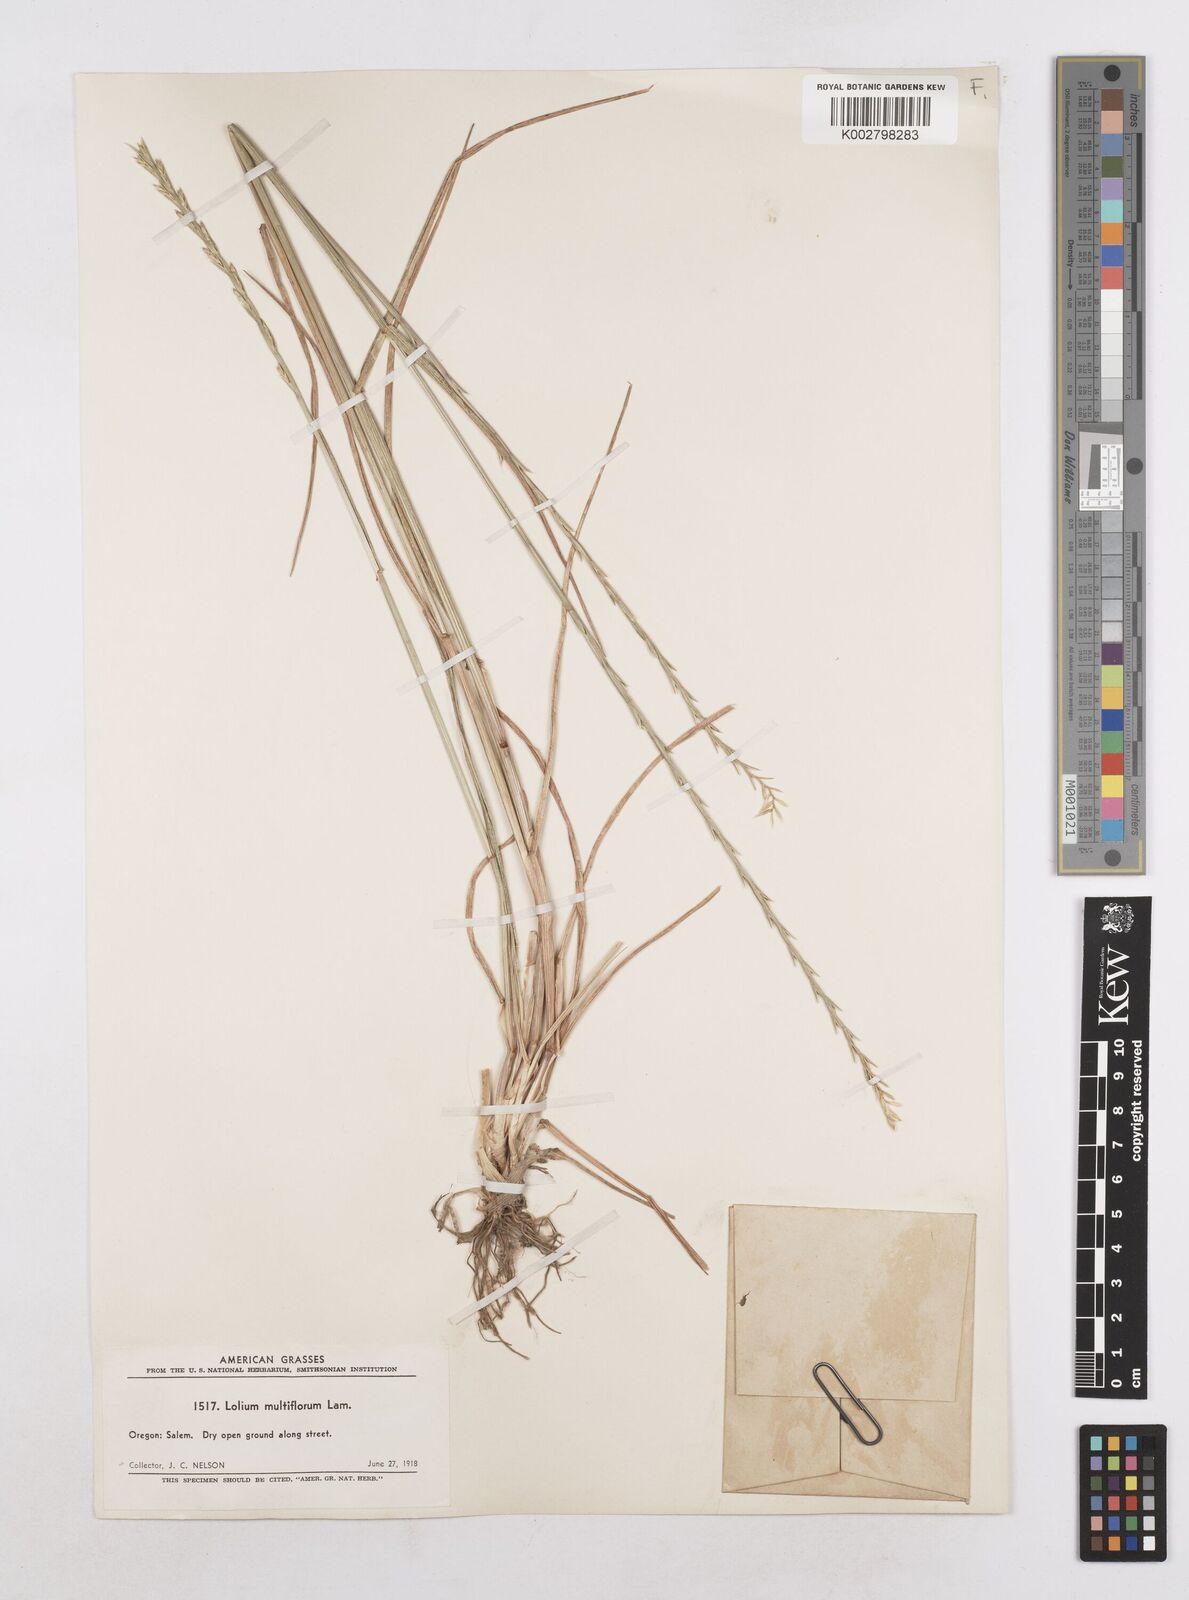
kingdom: Plantae
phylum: Tracheophyta
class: Liliopsida
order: Poales
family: Poaceae
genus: Lolium
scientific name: Lolium multiflorum
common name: Annual ryegrass
